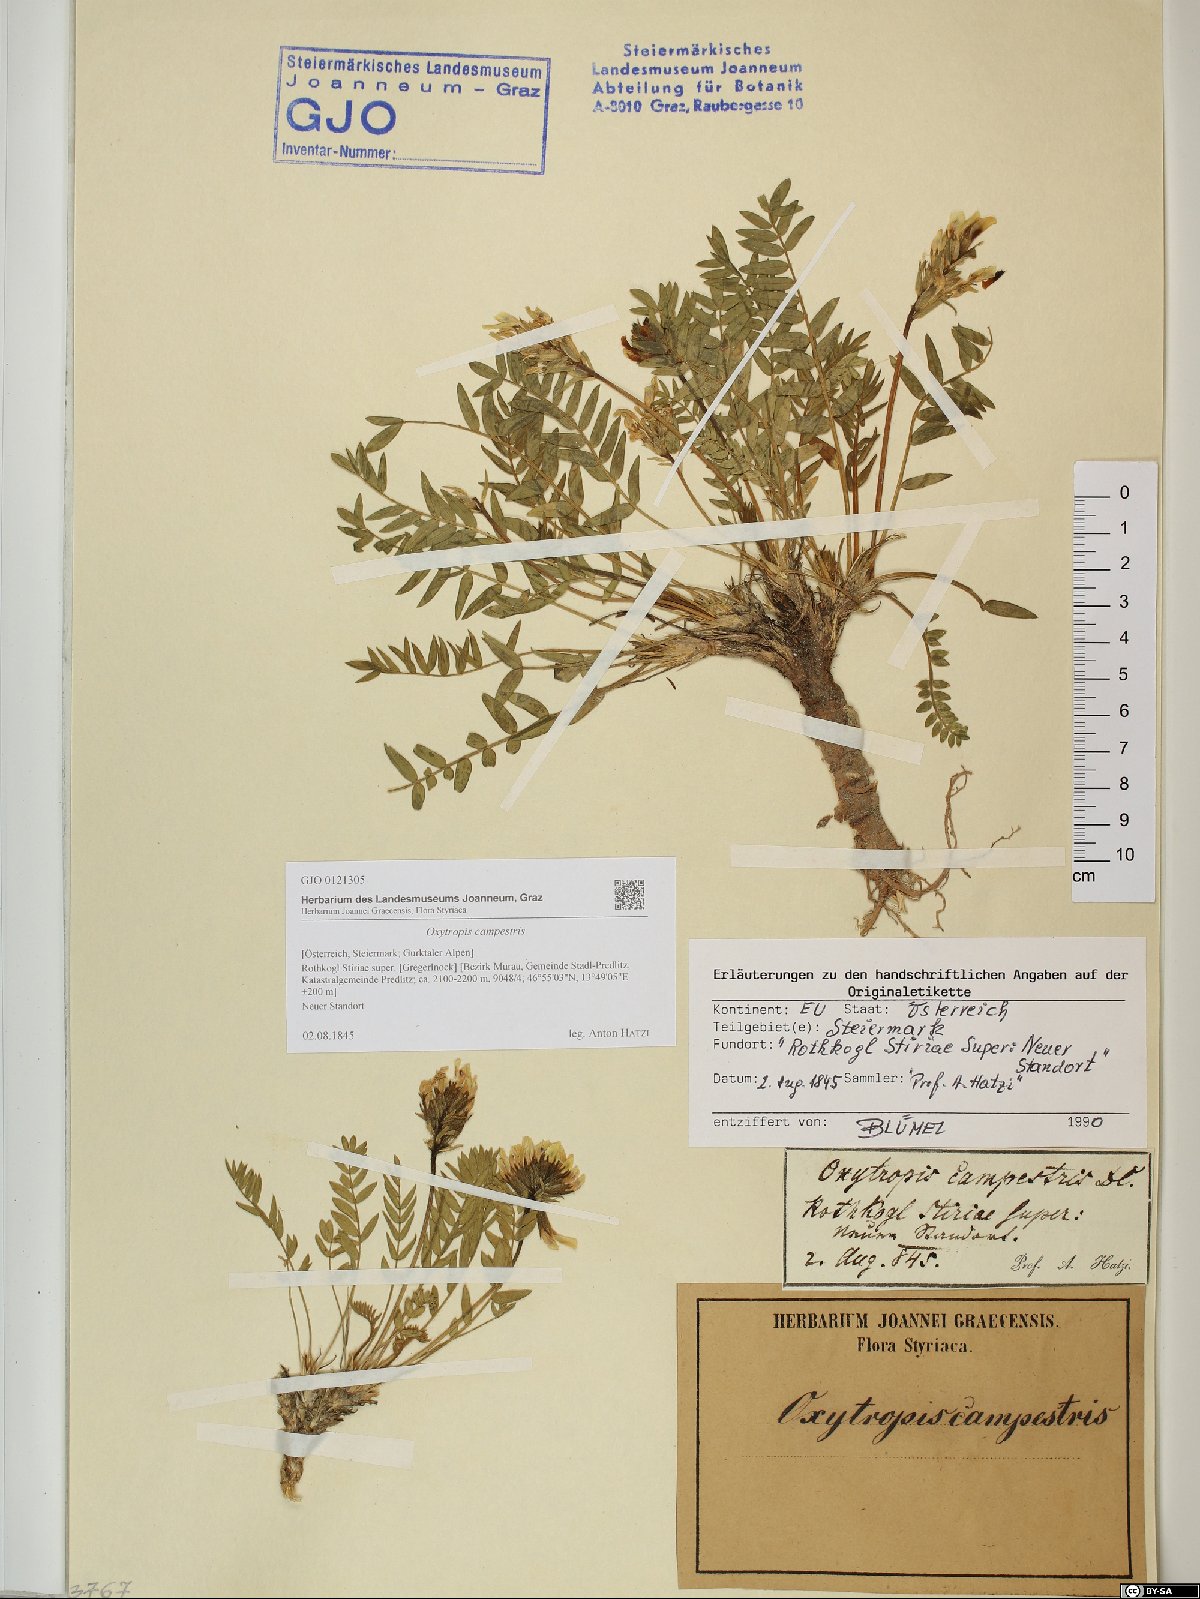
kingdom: Plantae
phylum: Tracheophyta
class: Magnoliopsida
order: Fabales
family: Fabaceae
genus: Oxytropis
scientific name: Oxytropis campestris
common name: Field locoweed
